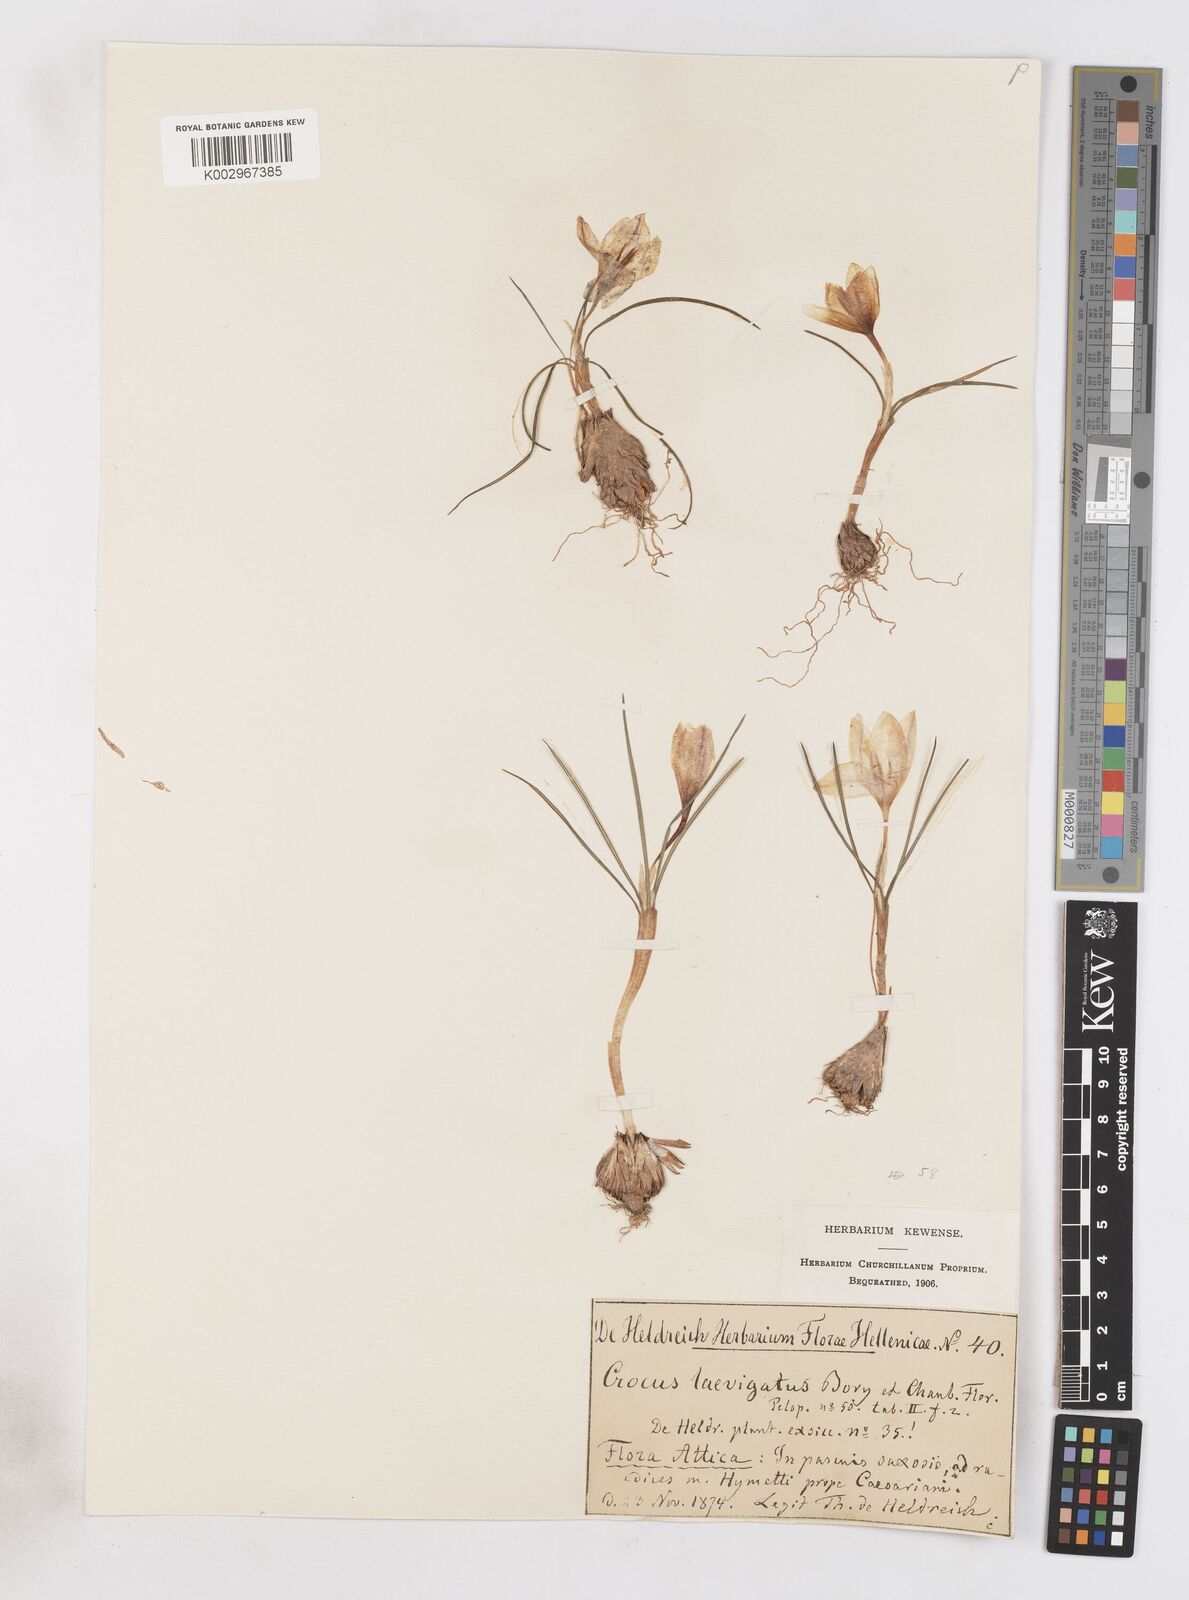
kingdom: Plantae
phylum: Tracheophyta
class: Liliopsida
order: Asparagales
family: Iridaceae
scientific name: Iridaceae
